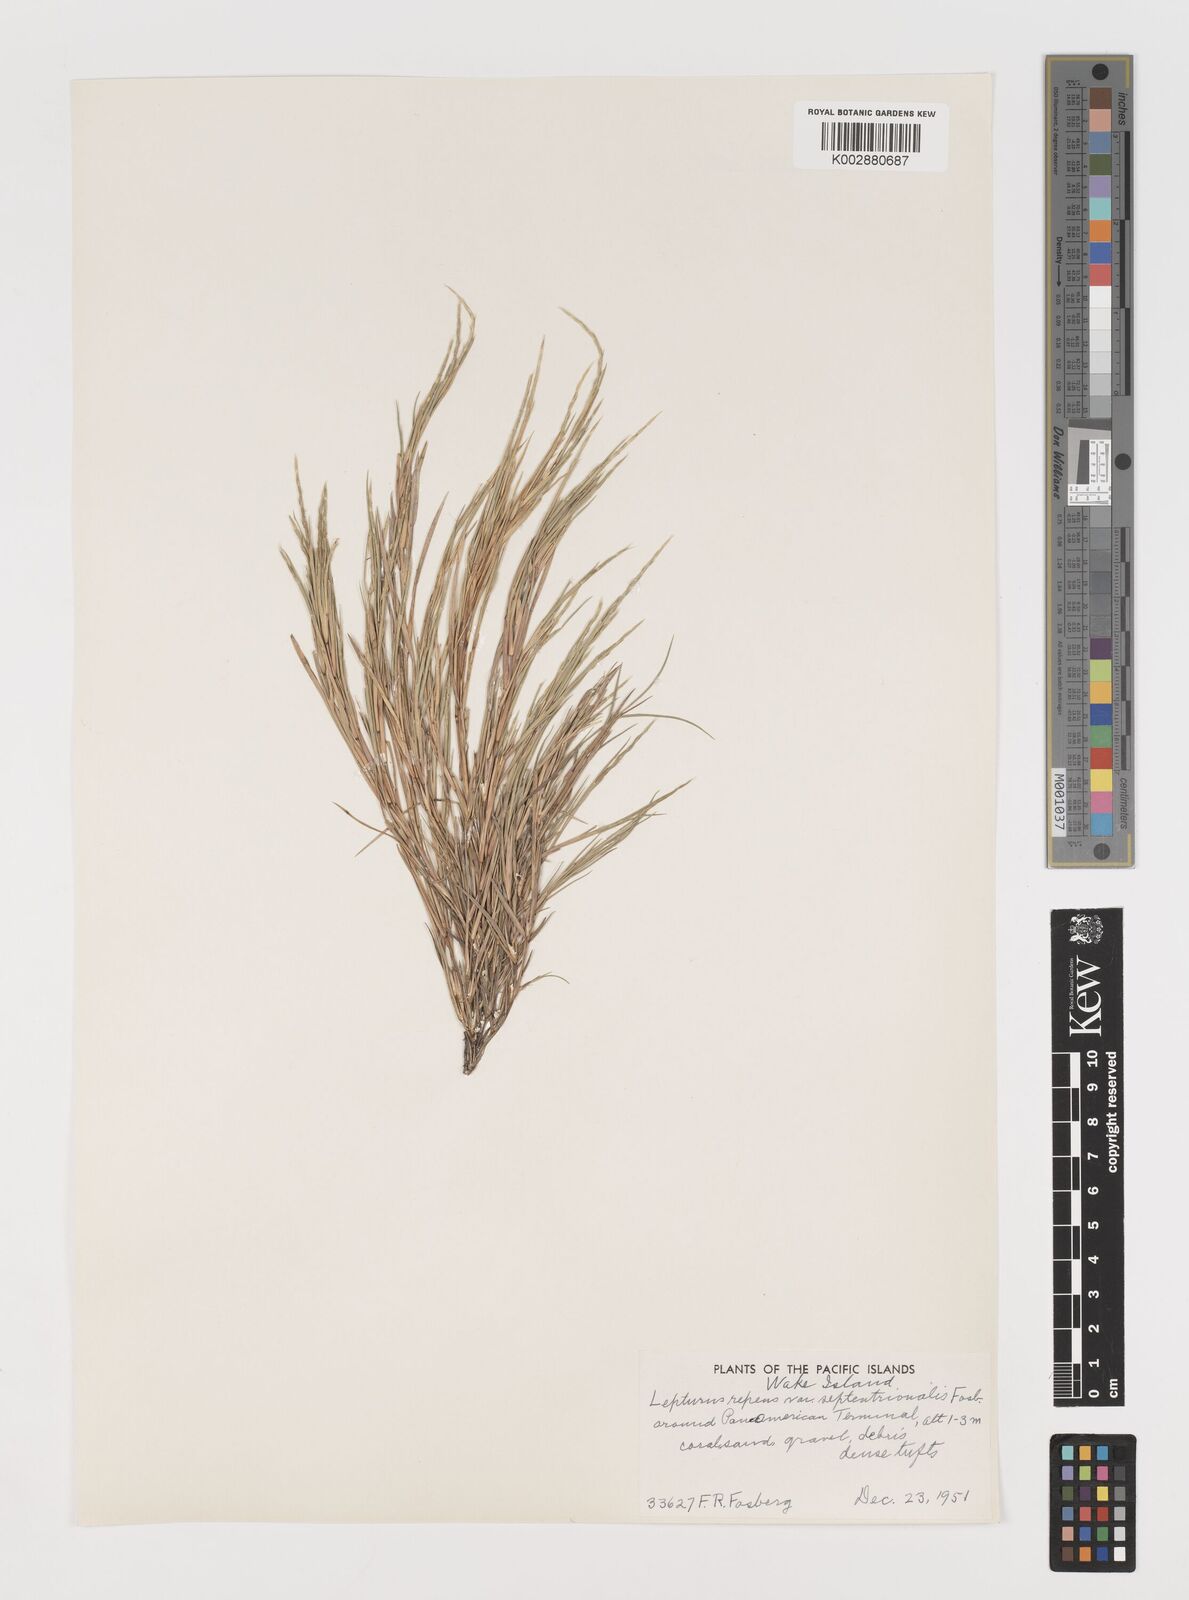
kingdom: Plantae
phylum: Tracheophyta
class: Liliopsida
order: Poales
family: Poaceae
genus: Lepturus
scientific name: Lepturus repens
